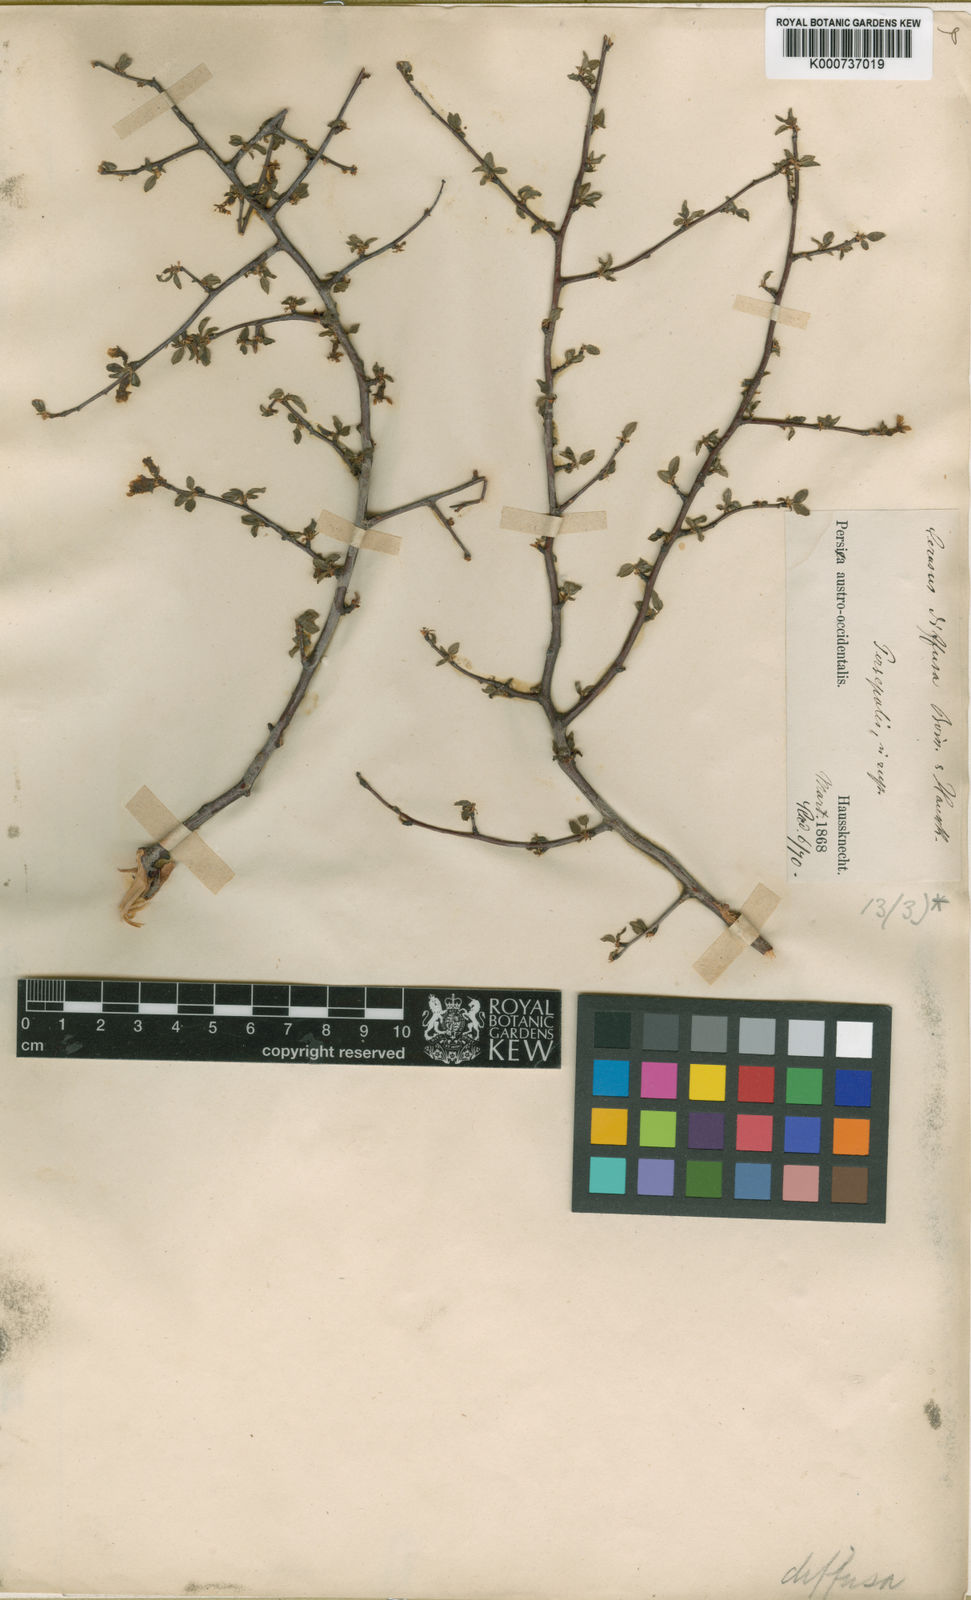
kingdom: Plantae
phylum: Tracheophyta
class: Magnoliopsida
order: Rosales
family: Rosaceae
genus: Prunus
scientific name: Prunus Cerasus myrtifolia
